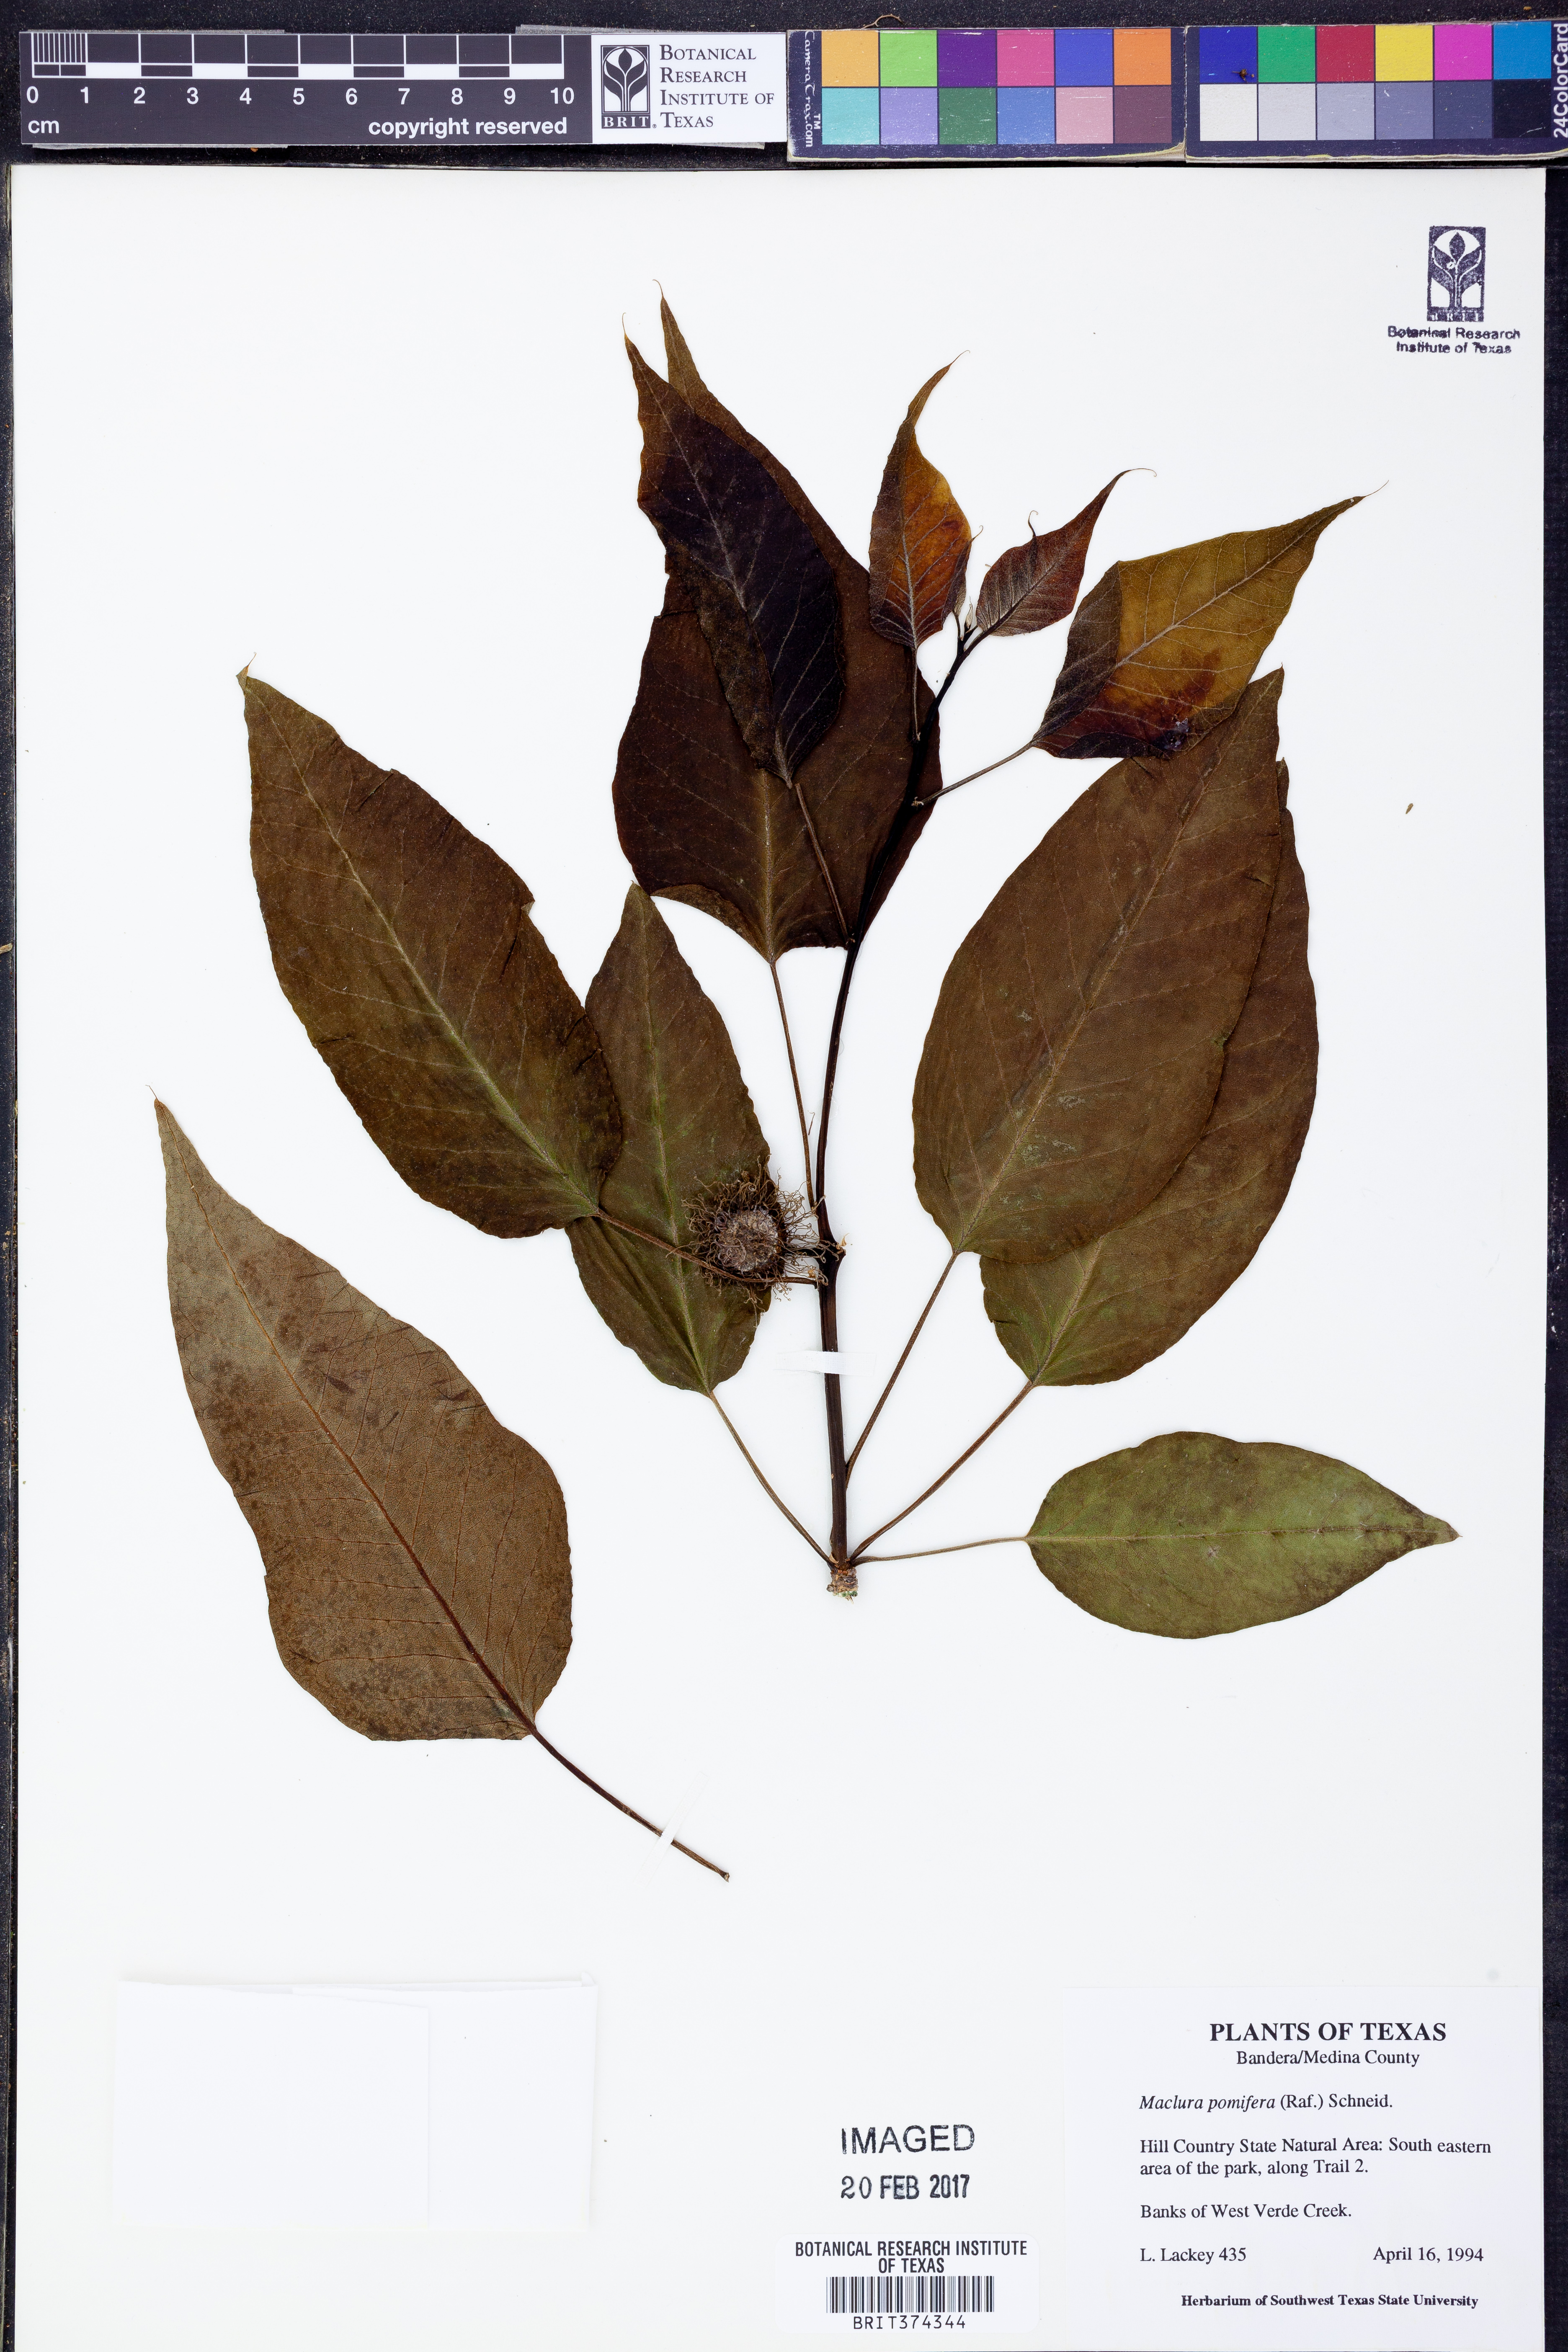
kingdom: Plantae
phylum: Tracheophyta
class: Magnoliopsida
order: Rosales
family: Moraceae
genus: Maclura
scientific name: Maclura pomifera
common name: Osage-orange
